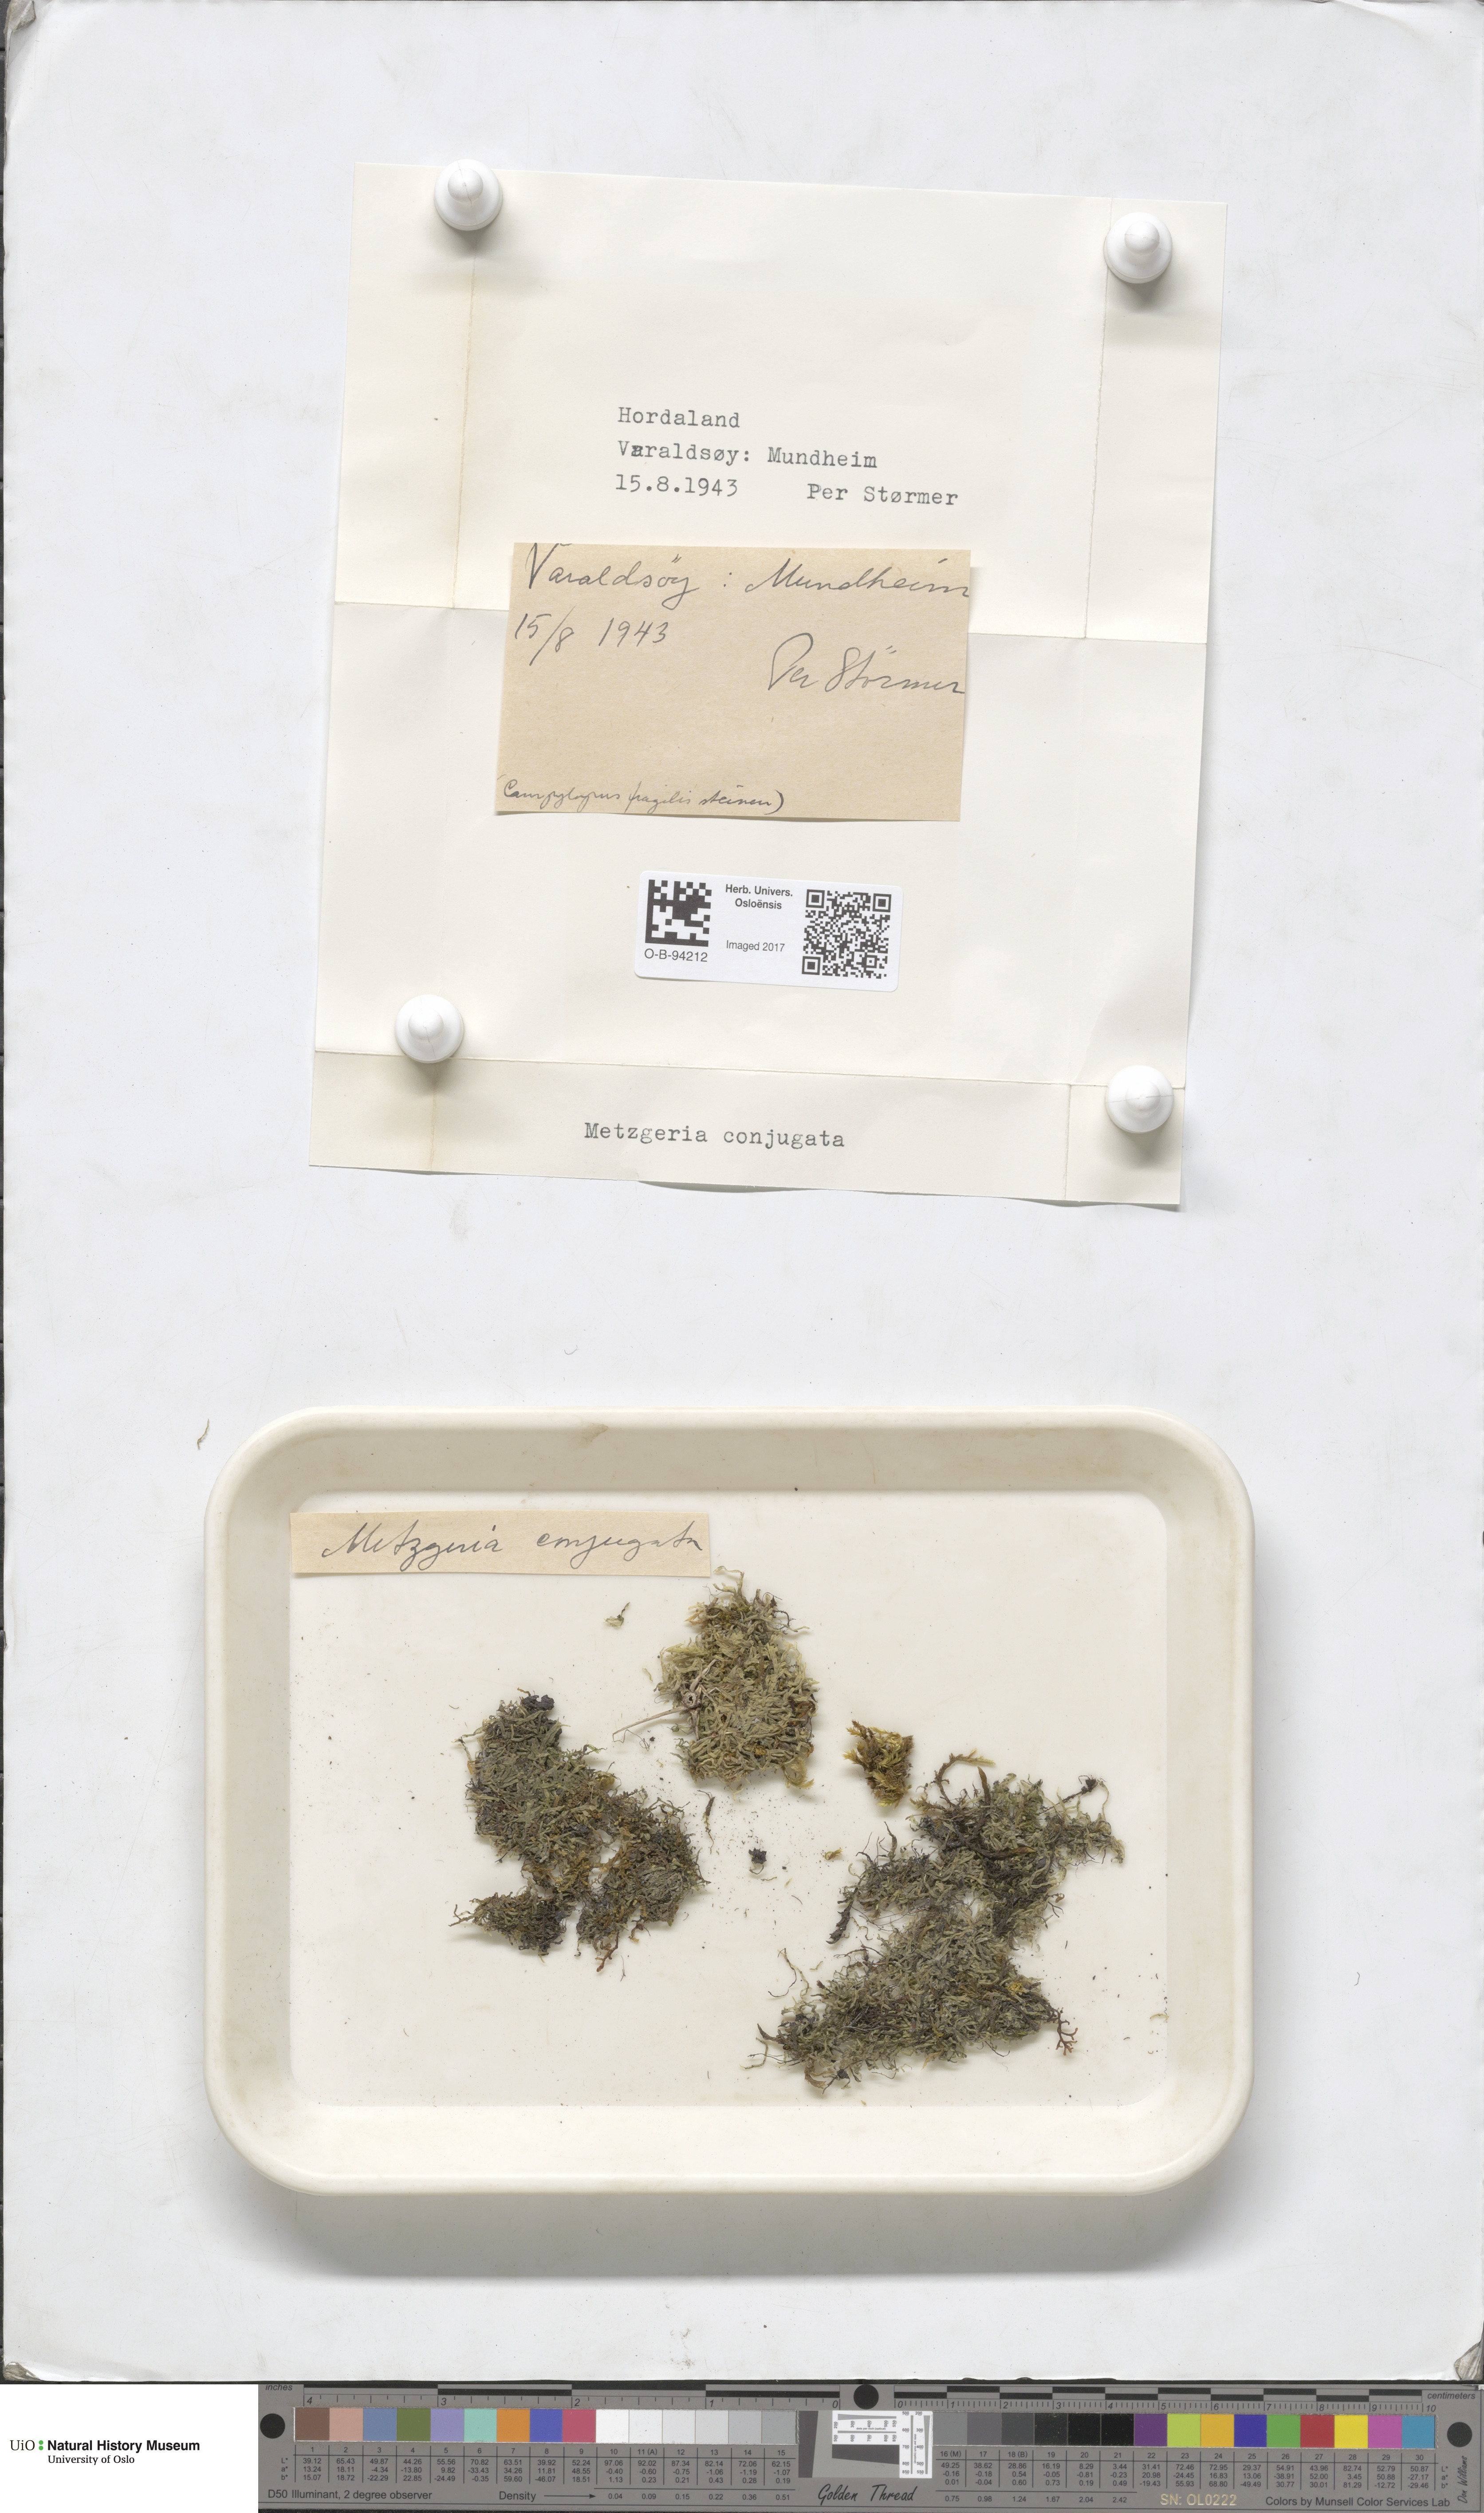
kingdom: Plantae
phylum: Marchantiophyta
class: Jungermanniopsida
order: Metzgeriales
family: Metzgeriaceae
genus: Metzgeria
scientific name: Metzgeria conjugata
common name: Rock veilwort
